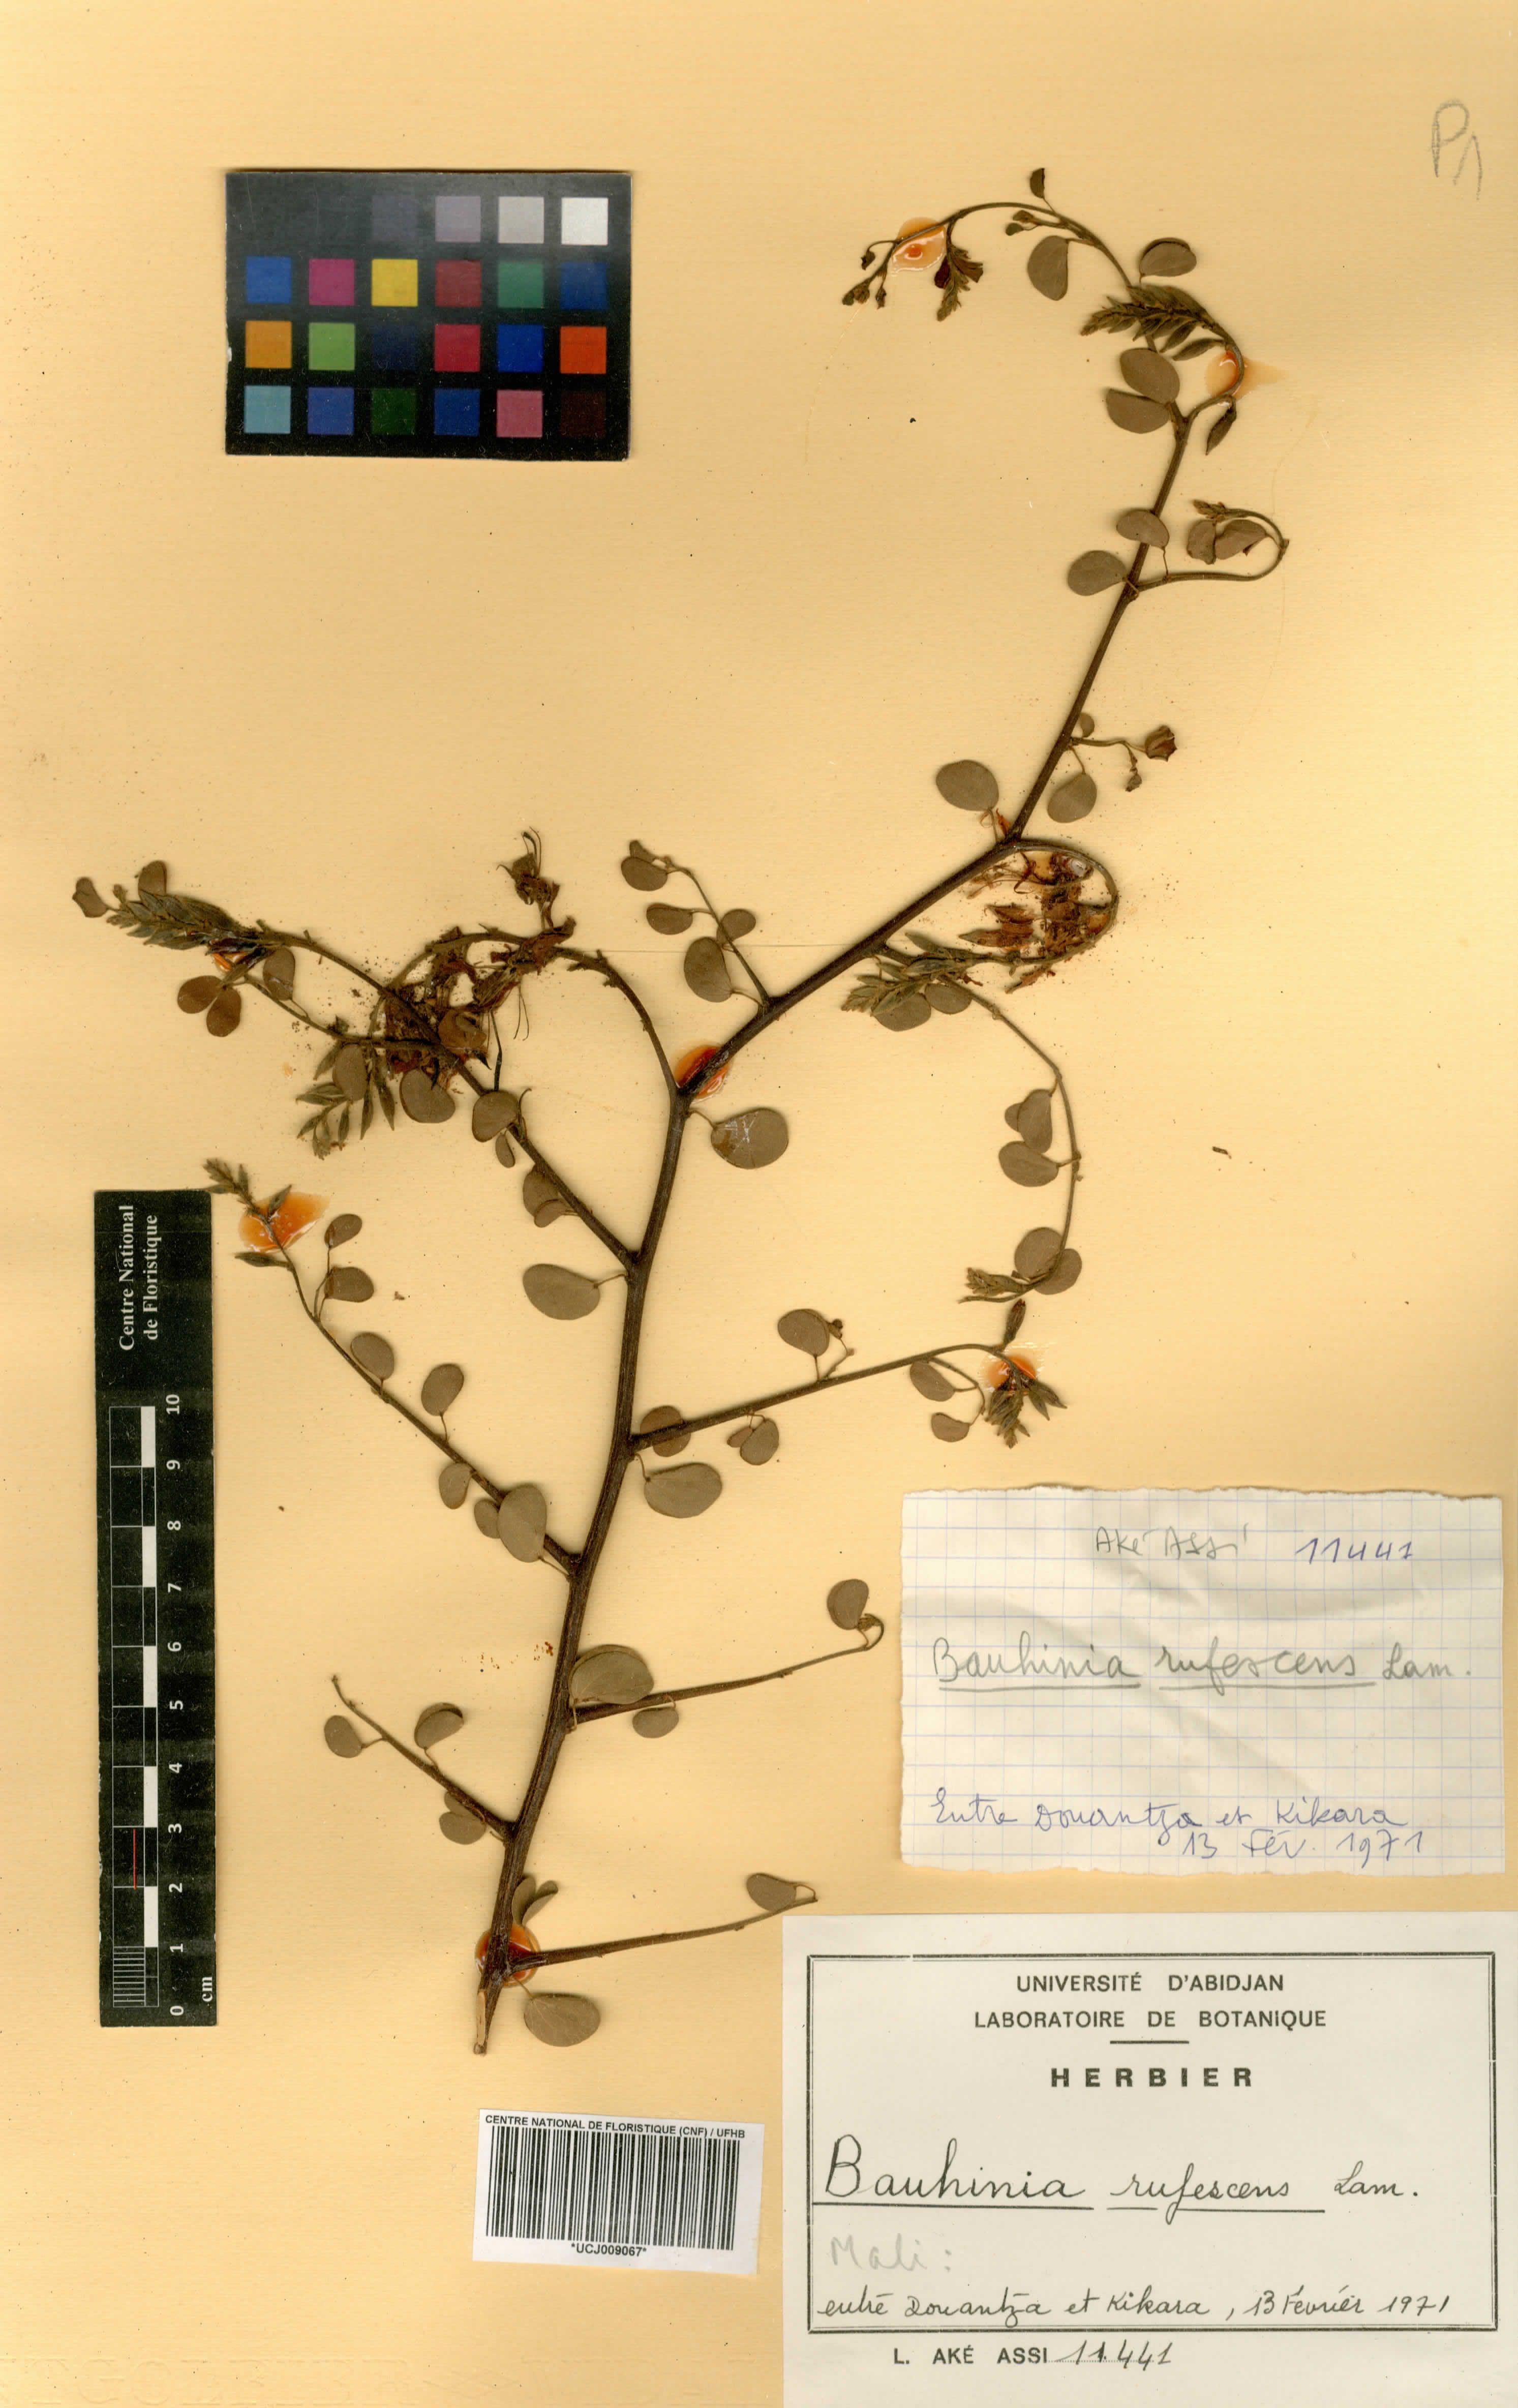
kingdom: Plantae
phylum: Tracheophyta
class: Magnoliopsida
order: Fabales
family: Fabaceae
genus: Bauhinia
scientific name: Bauhinia rufescens
